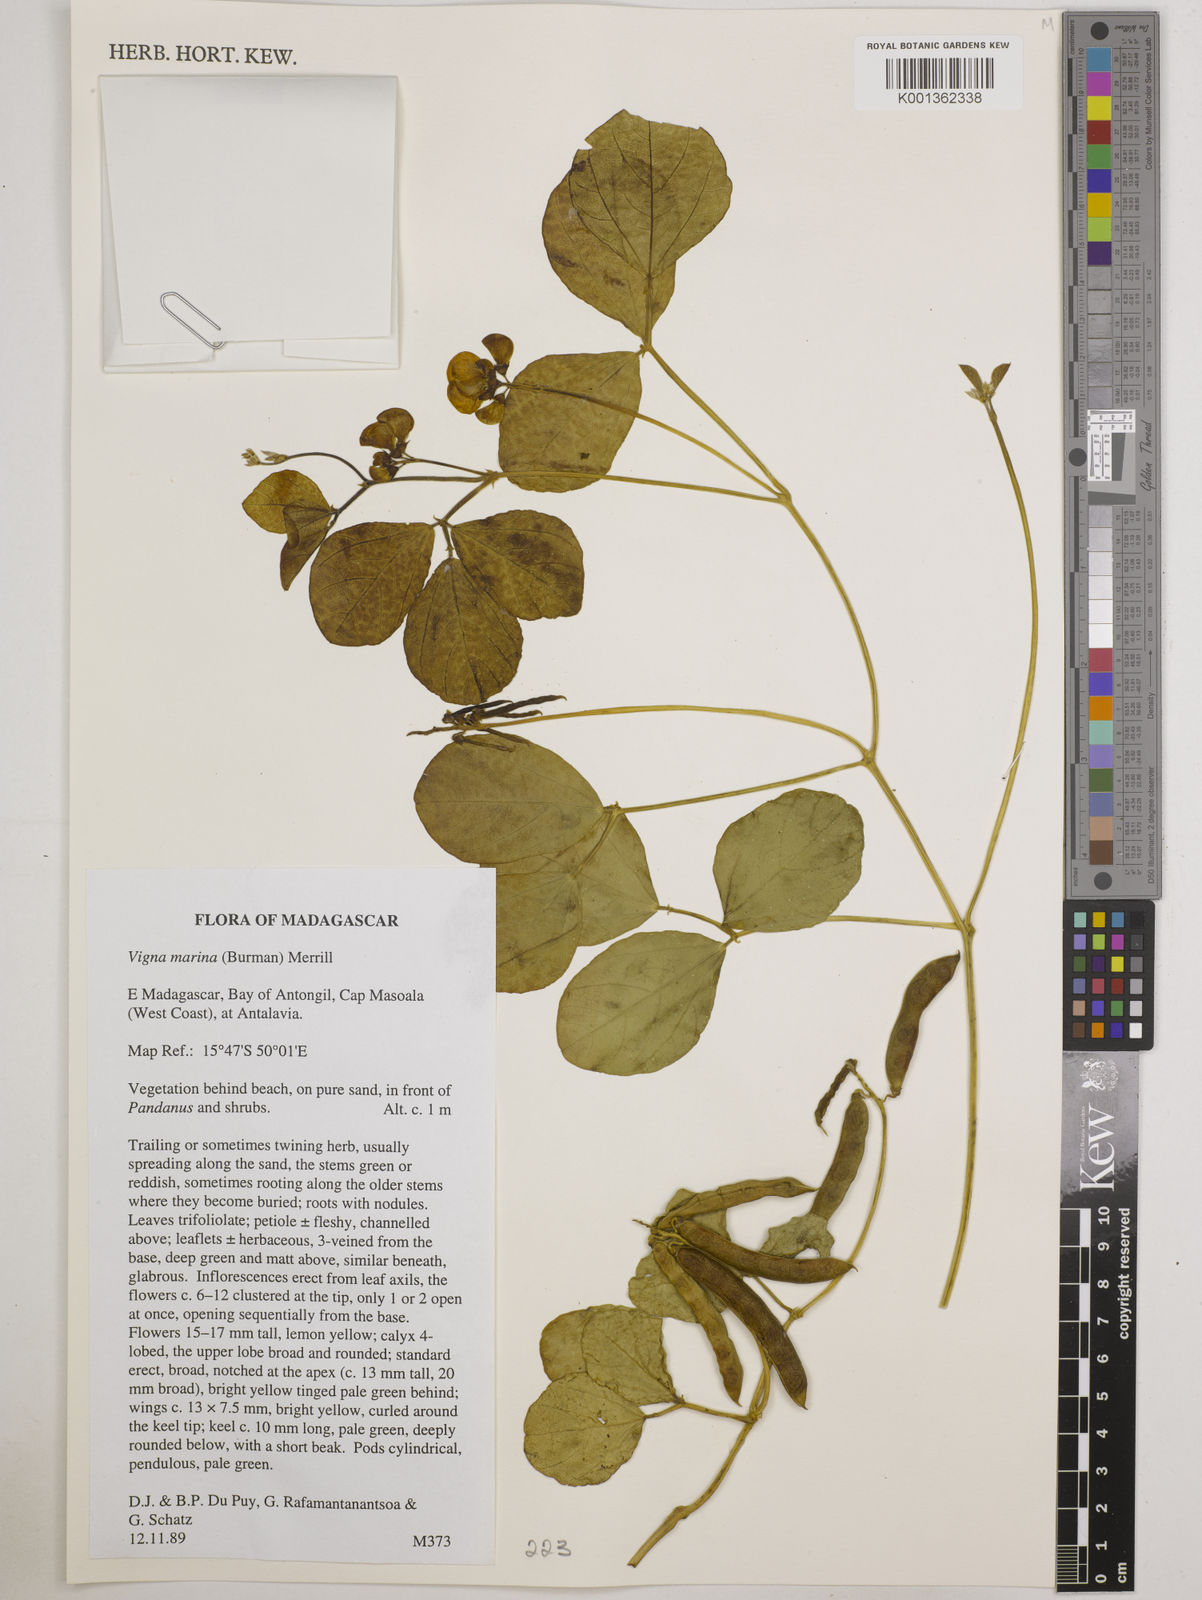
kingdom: Plantae
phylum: Tracheophyta
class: Magnoliopsida
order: Fabales
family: Fabaceae
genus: Vigna
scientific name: Vigna marina
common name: Dune-bean
